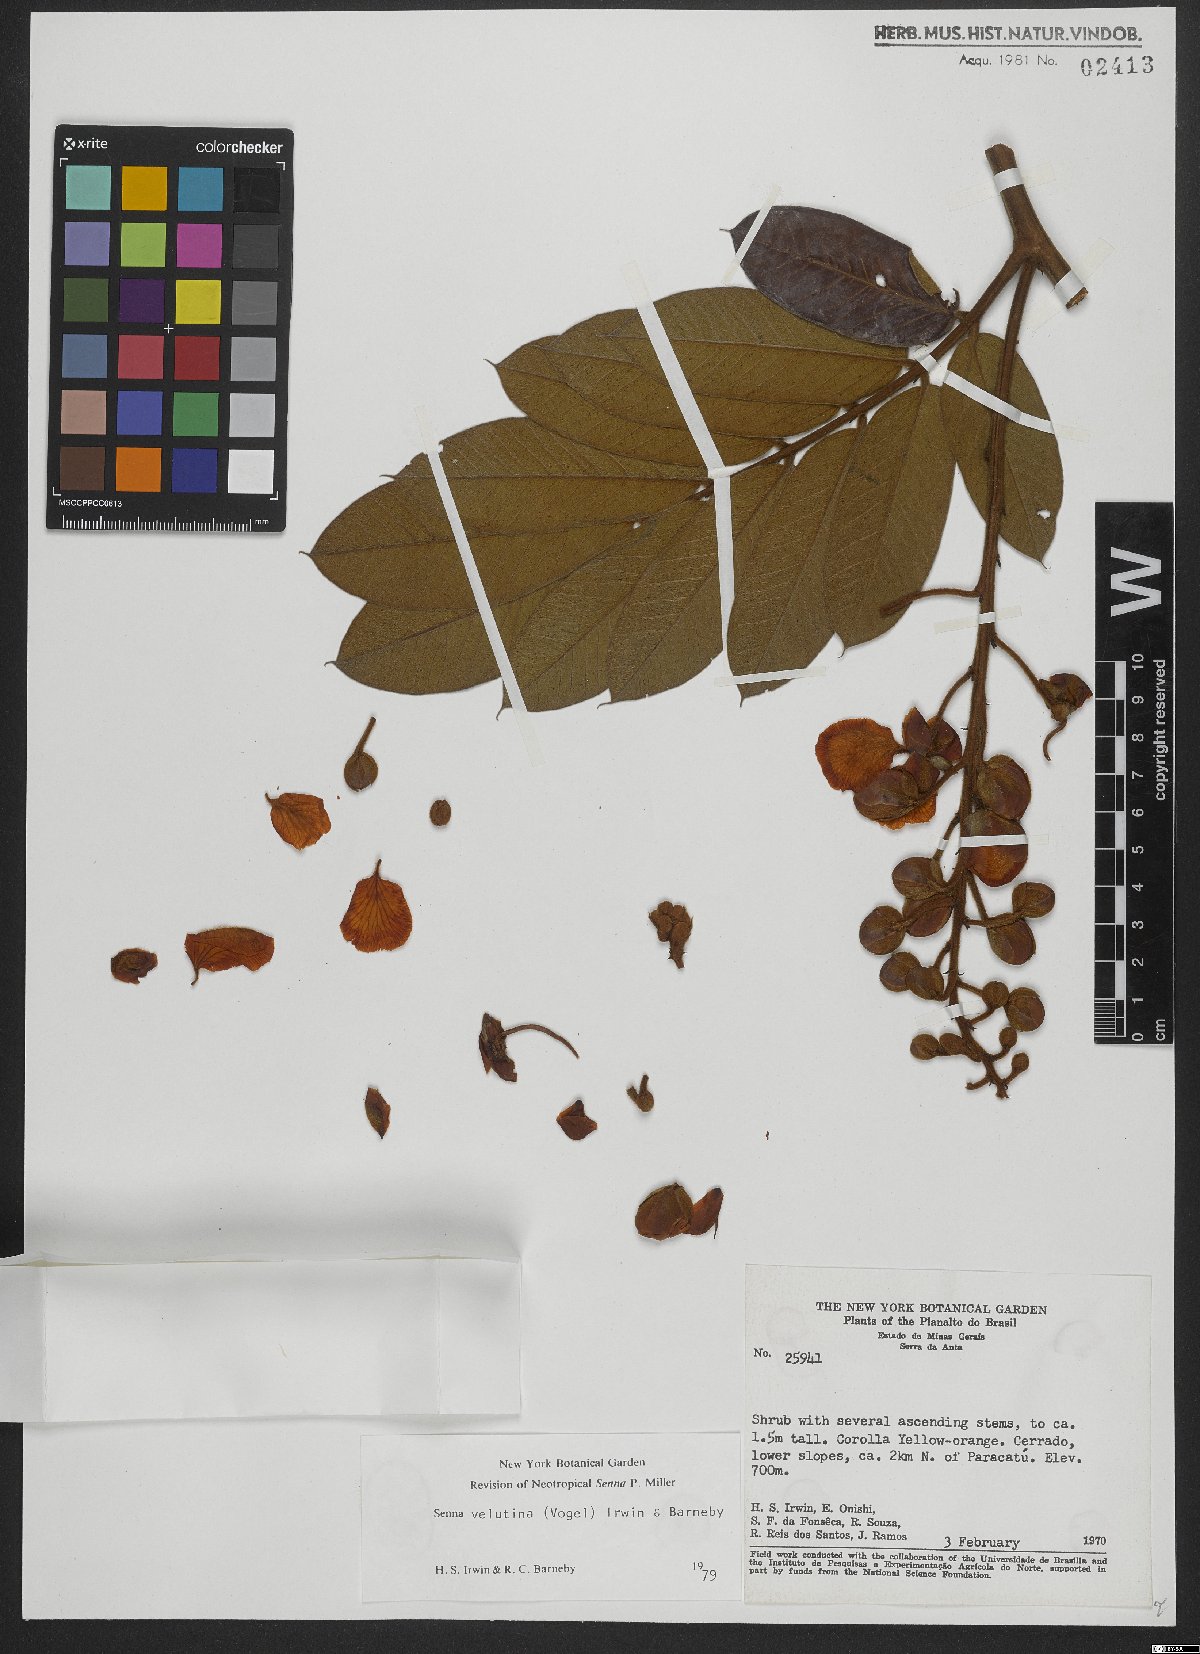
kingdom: Plantae
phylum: Tracheophyta
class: Magnoliopsida
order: Fabales
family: Fabaceae
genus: Senna
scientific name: Senna velutina
